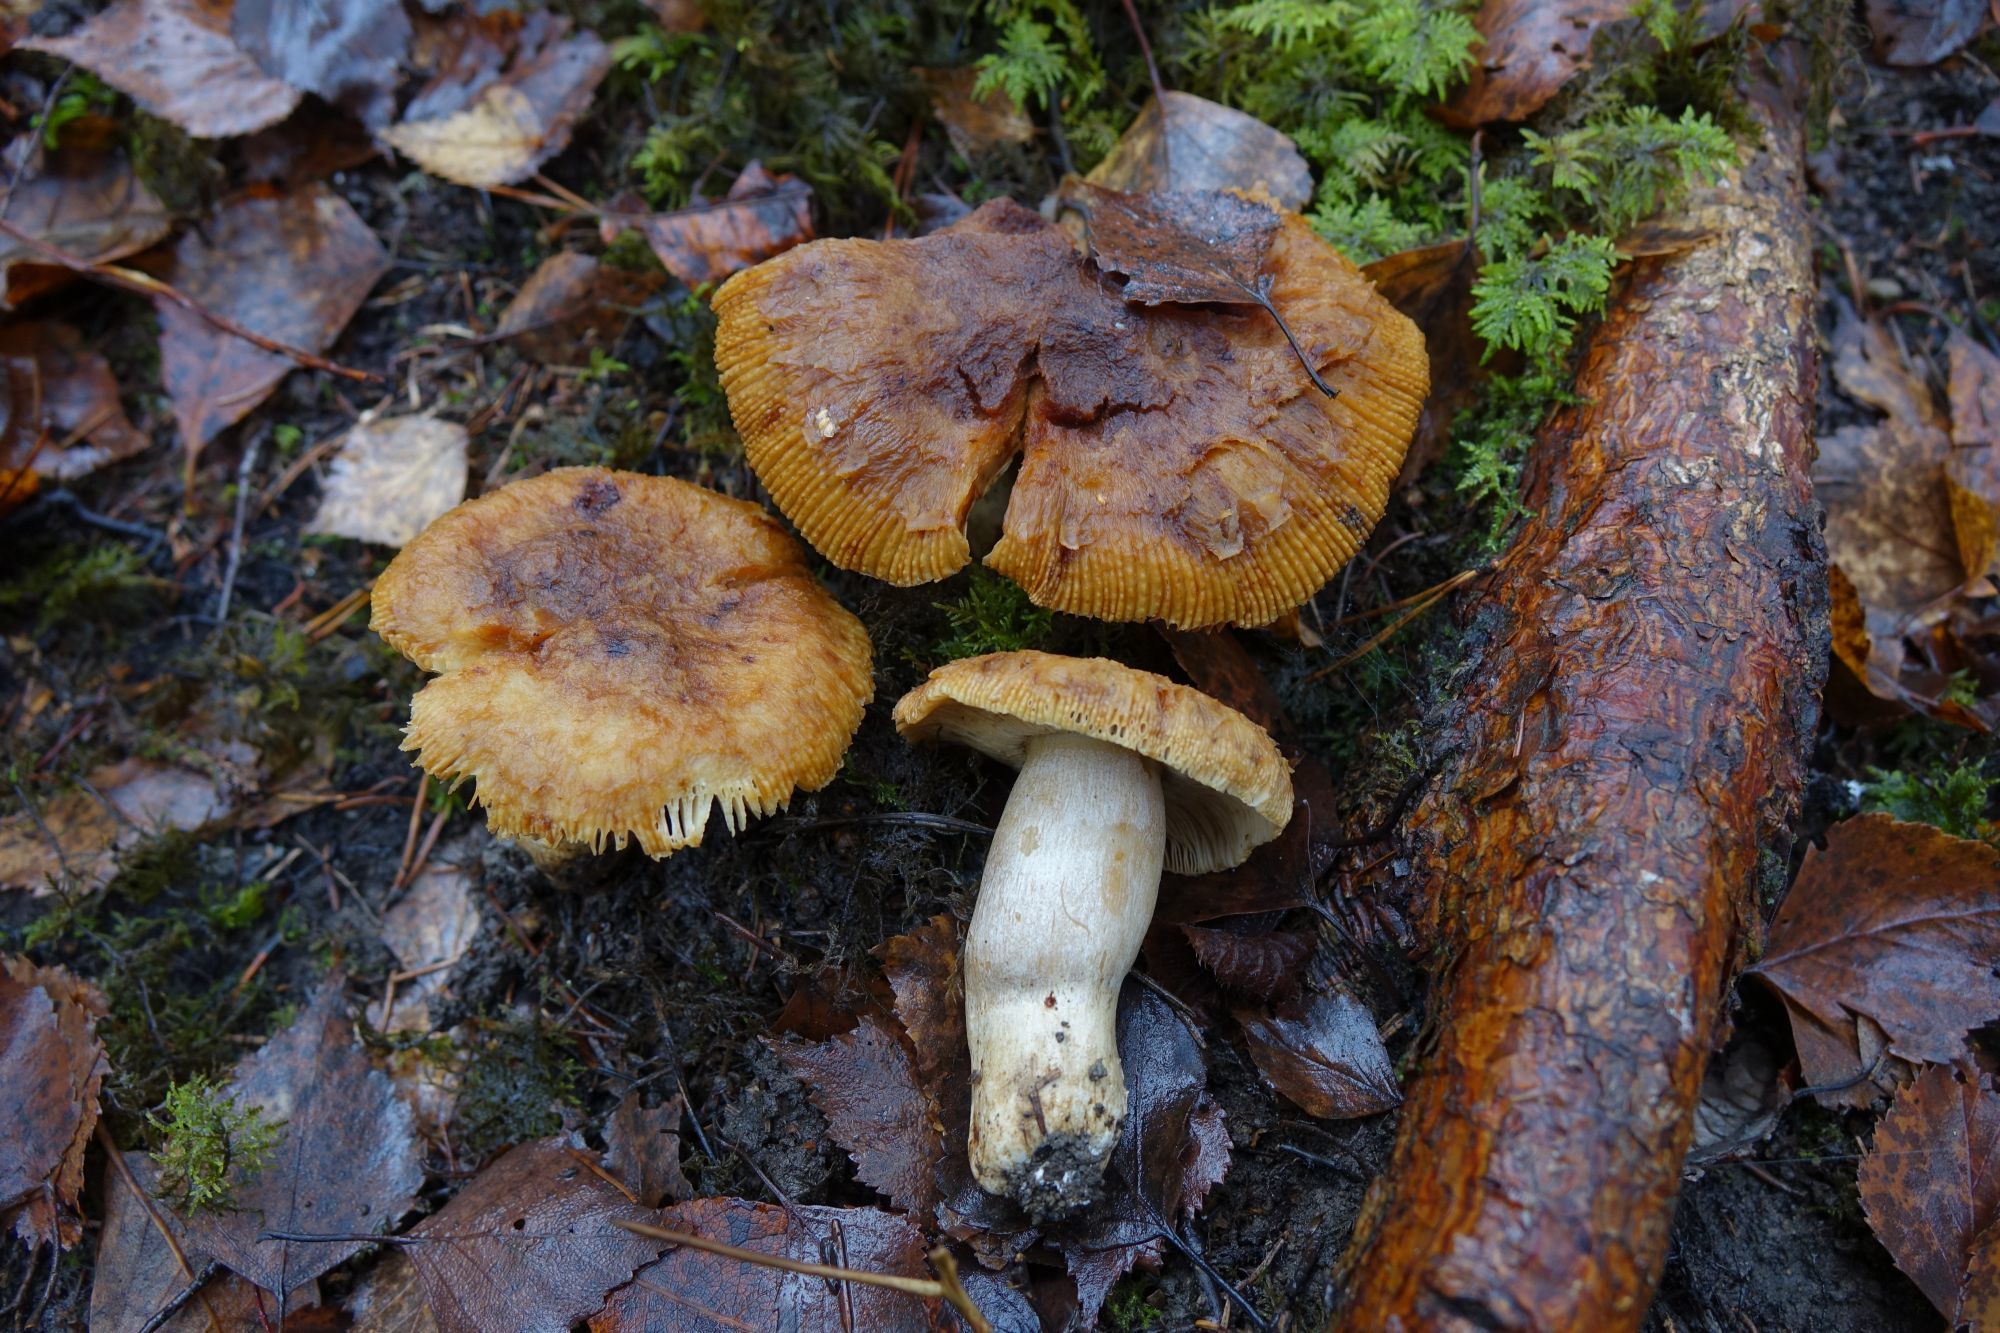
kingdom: Fungi
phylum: Basidiomycota
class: Agaricomycetes
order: Russulales
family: Russulaceae
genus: Russula
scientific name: Russula foetens
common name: Foetid russula
